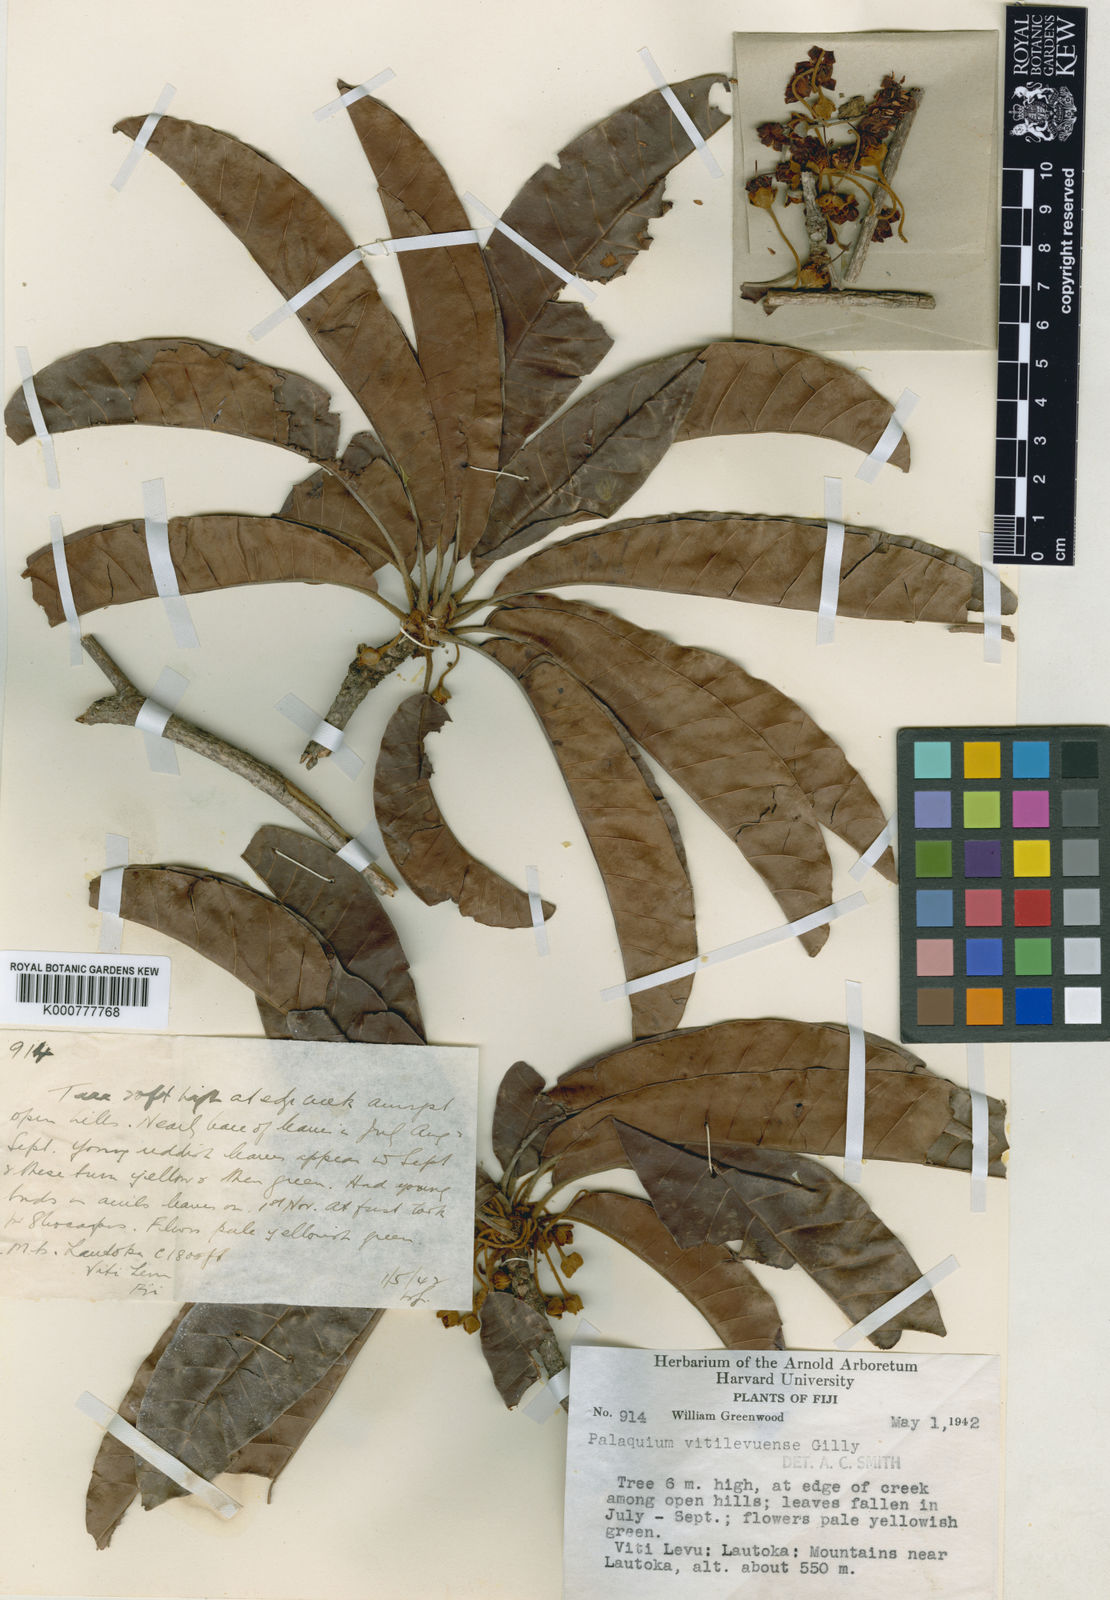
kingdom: Plantae
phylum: Tracheophyta
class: Magnoliopsida
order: Ericales
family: Sapotaceae
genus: Palaquium
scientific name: Palaquium vitilevuense
